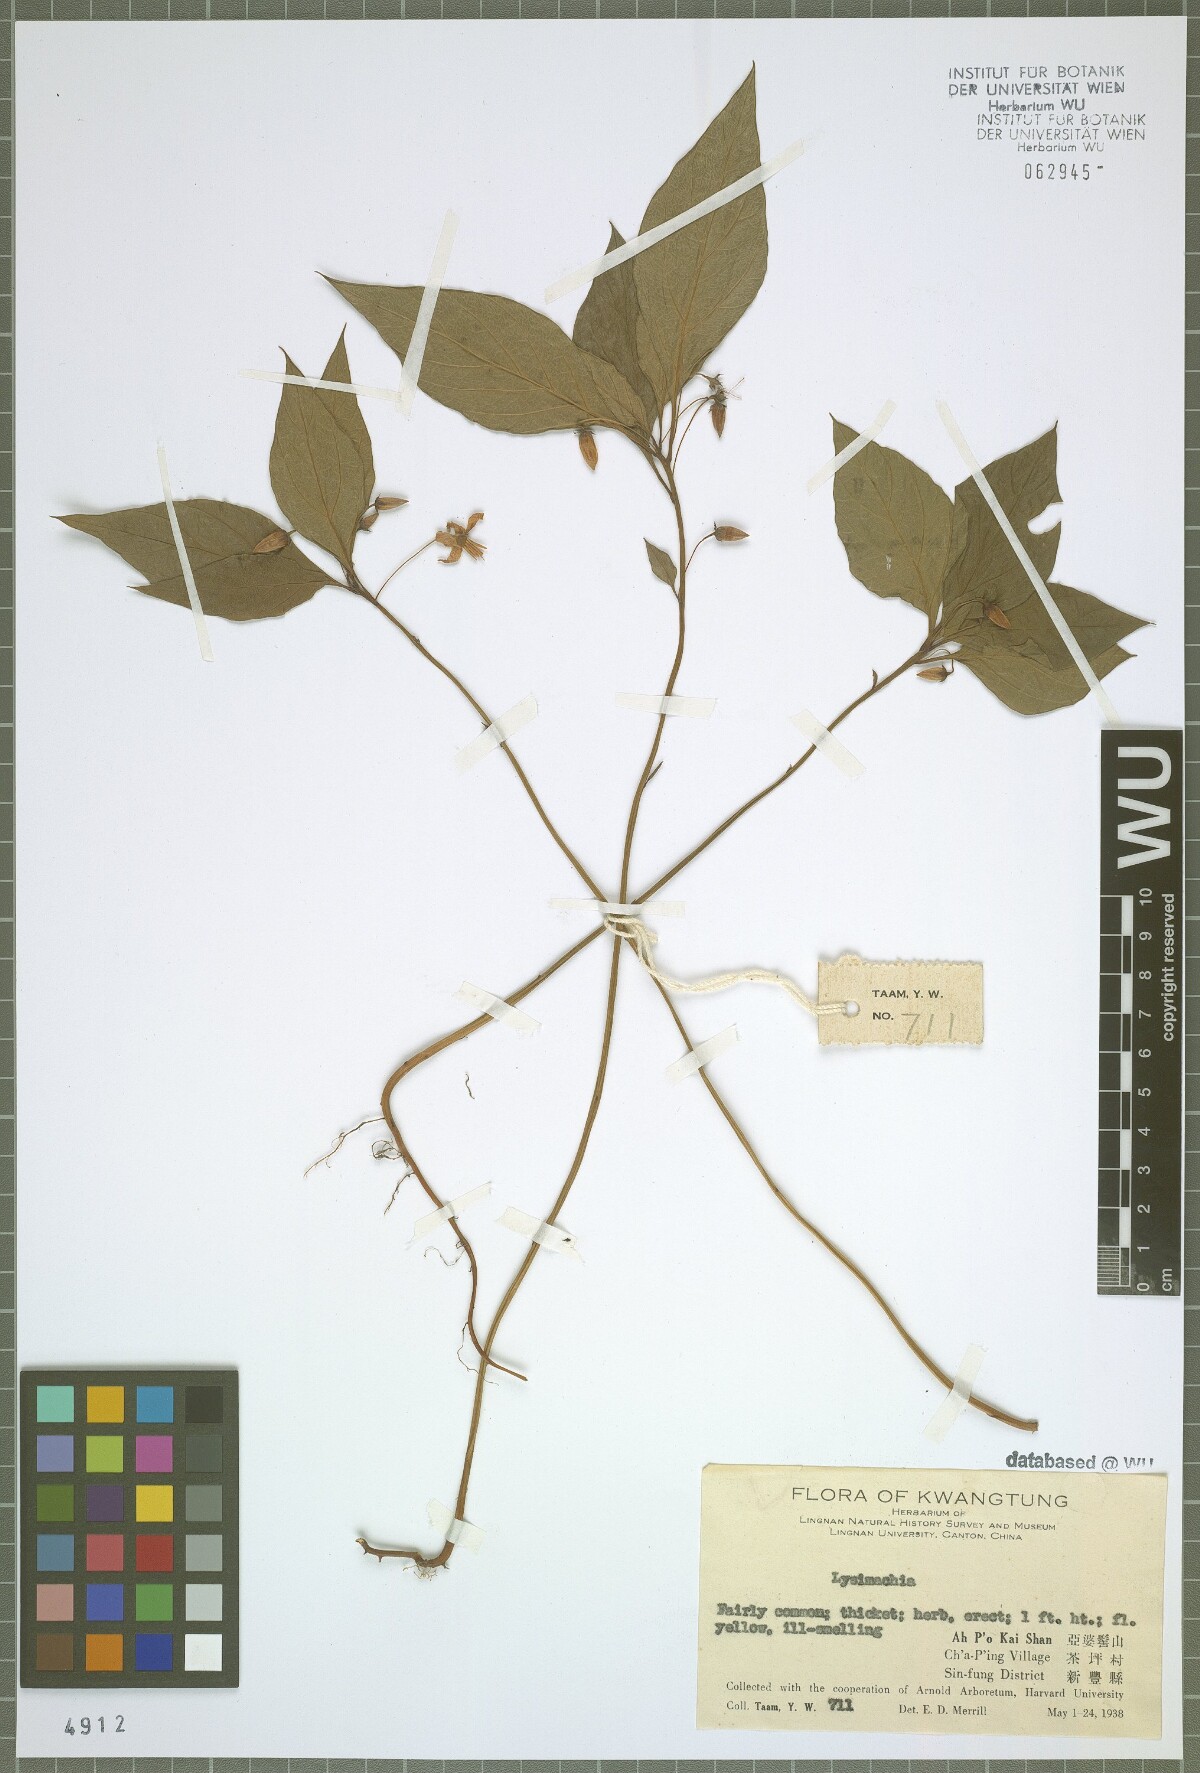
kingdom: Plantae
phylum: Tracheophyta
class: Magnoliopsida
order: Ericales
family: Primulaceae
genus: Lysimachia
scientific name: Lysimachia
